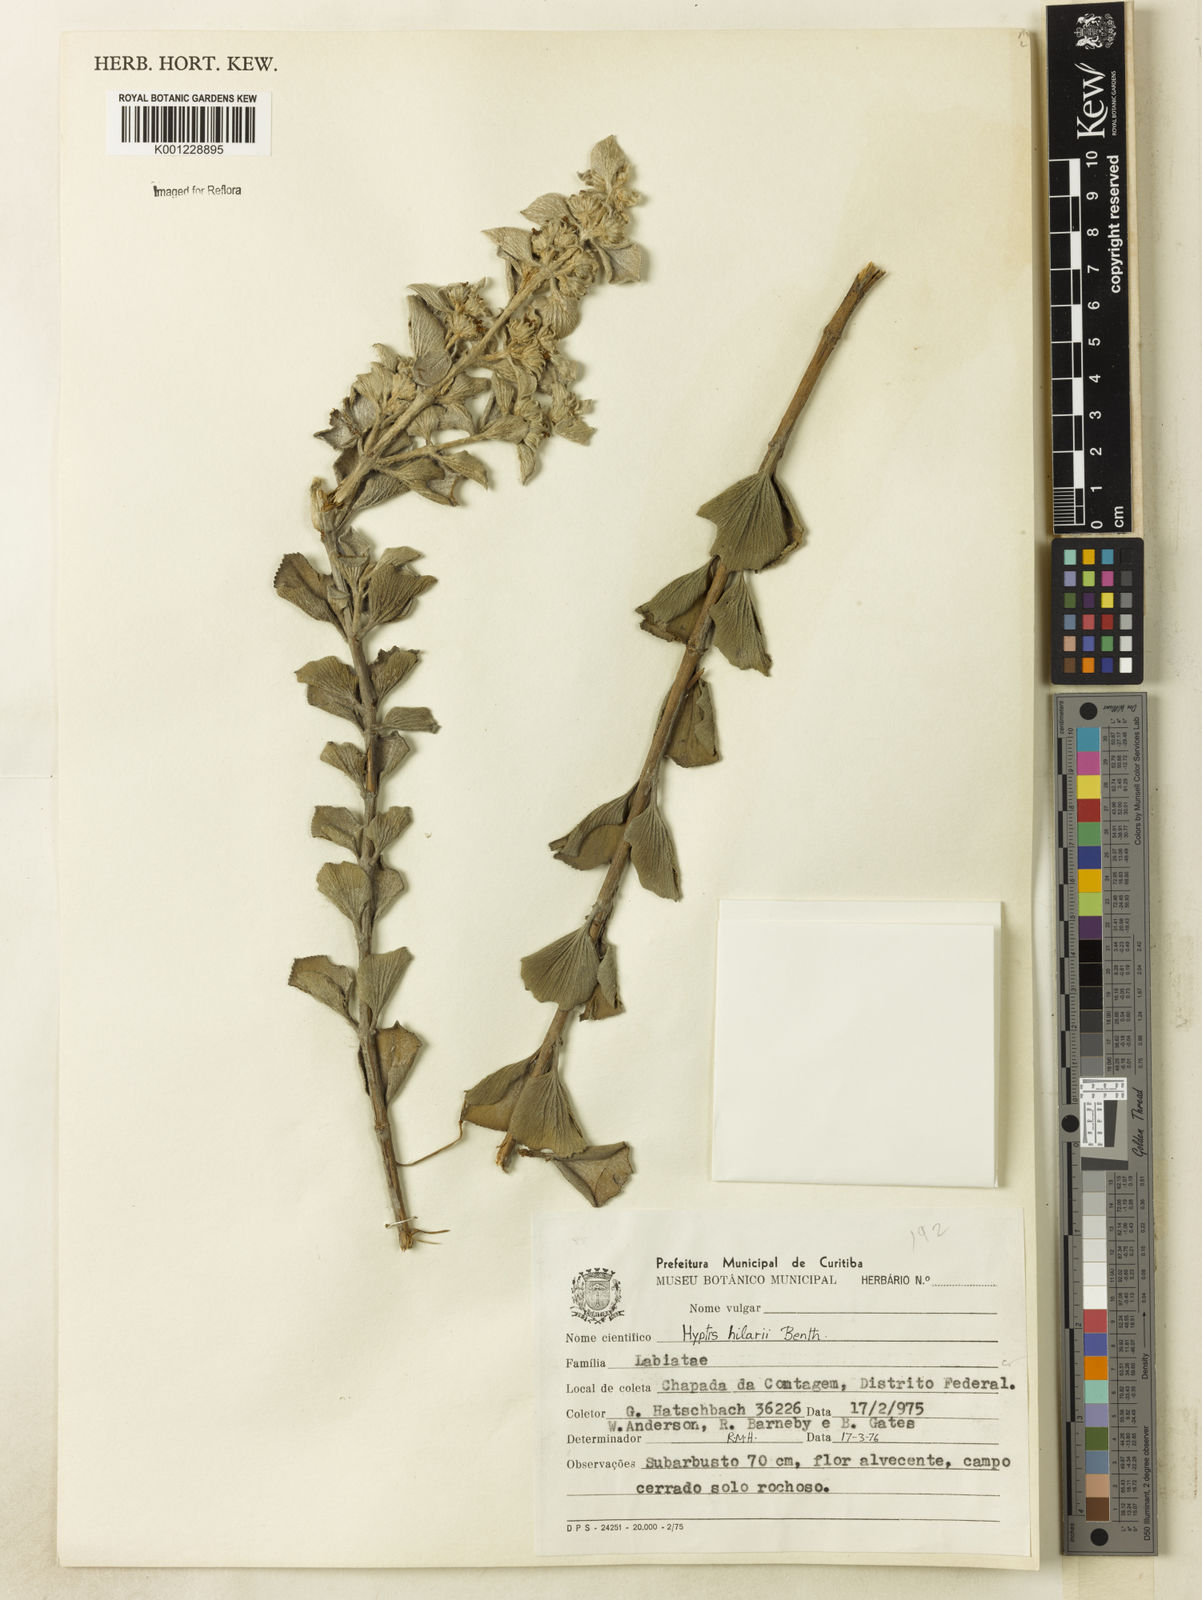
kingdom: Plantae
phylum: Tracheophyta
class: Magnoliopsida
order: Lamiales
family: Lamiaceae
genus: Hyptis
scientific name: Hyptis hilarii
